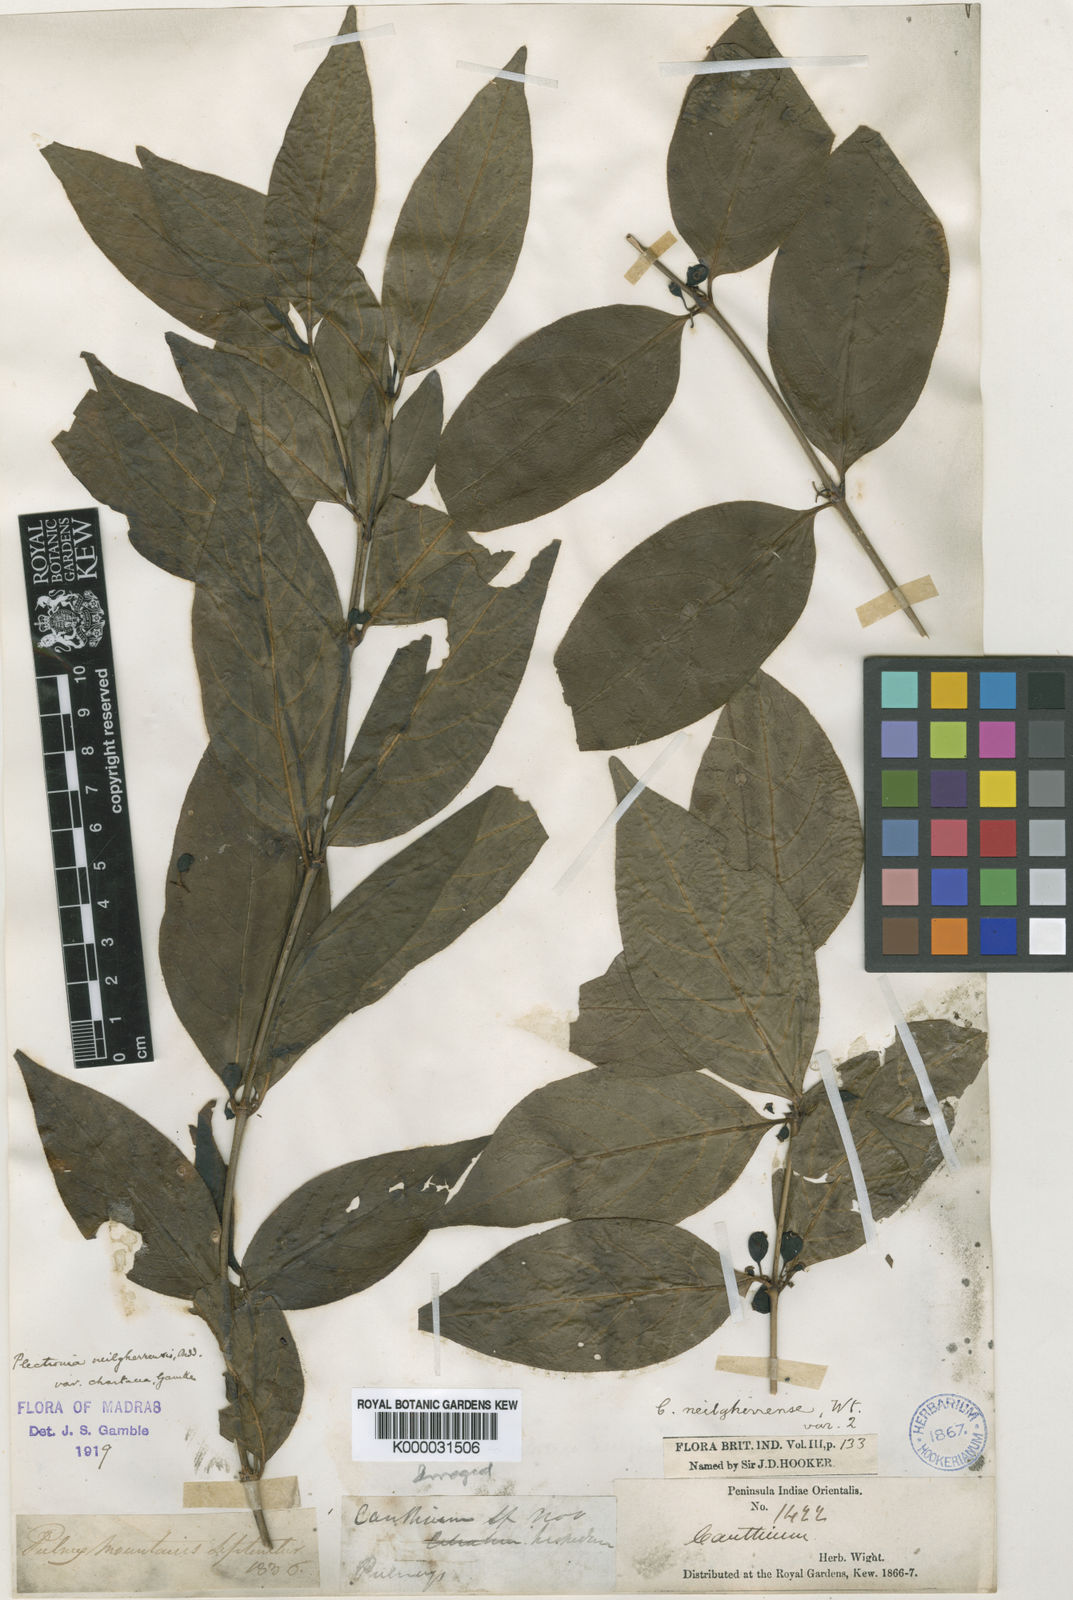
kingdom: Plantae
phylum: Tracheophyta
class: Magnoliopsida
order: Gentianales
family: Rubiaceae
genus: Canthiumera
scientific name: Canthiumera neilgherrensis
